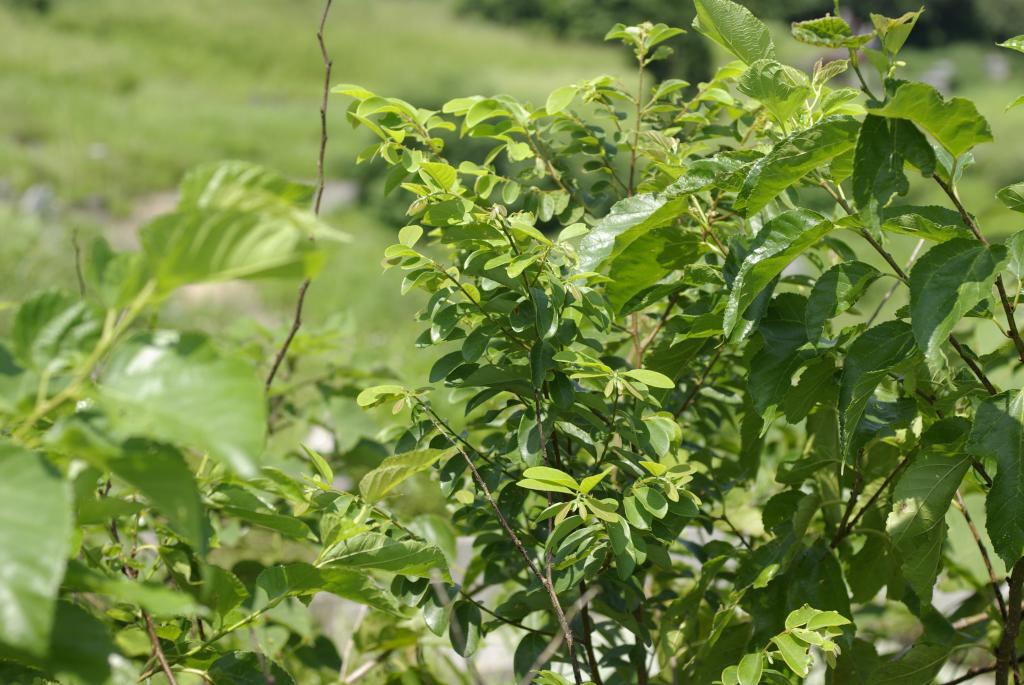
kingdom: Plantae
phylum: Tracheophyta
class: Magnoliopsida
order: Malpighiales
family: Phyllanthaceae
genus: Bridelia
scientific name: Bridelia tomentosa
